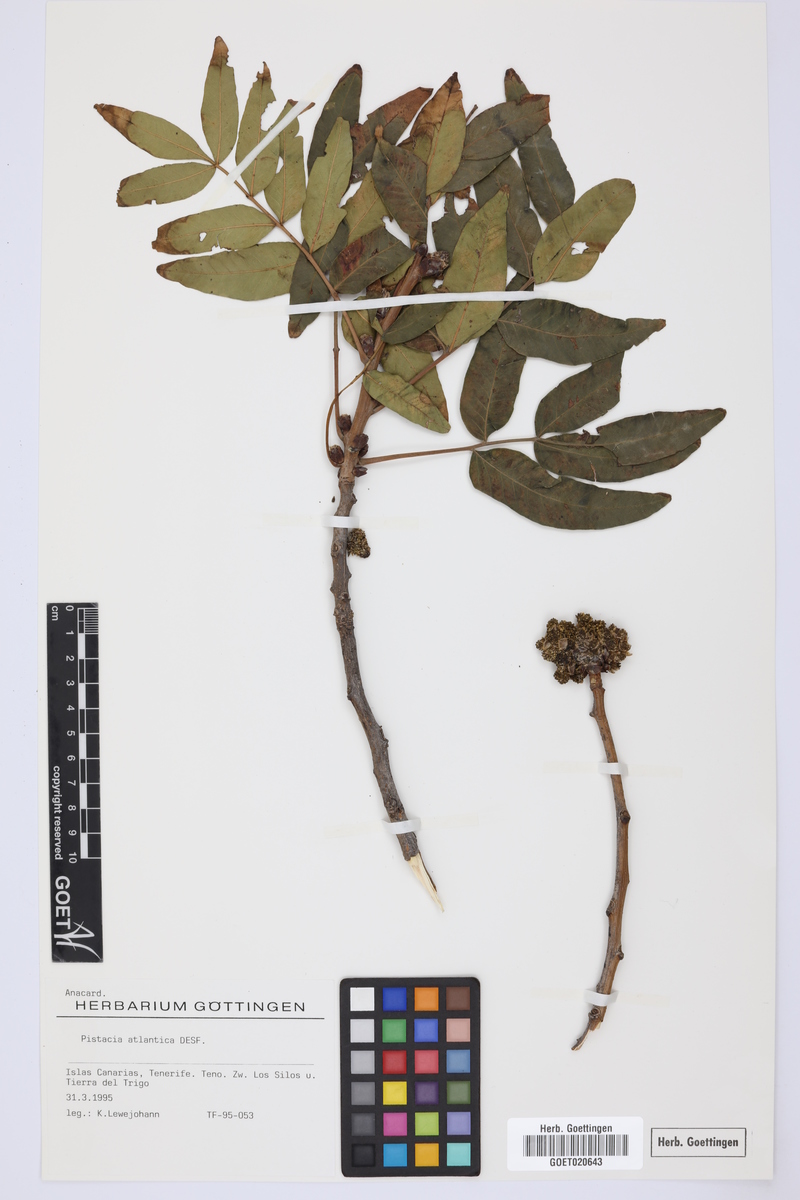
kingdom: Plantae
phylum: Tracheophyta
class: Magnoliopsida
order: Sapindales
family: Anacardiaceae
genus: Pistacia
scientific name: Pistacia atlantica
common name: Mt. atlas mastic tree
